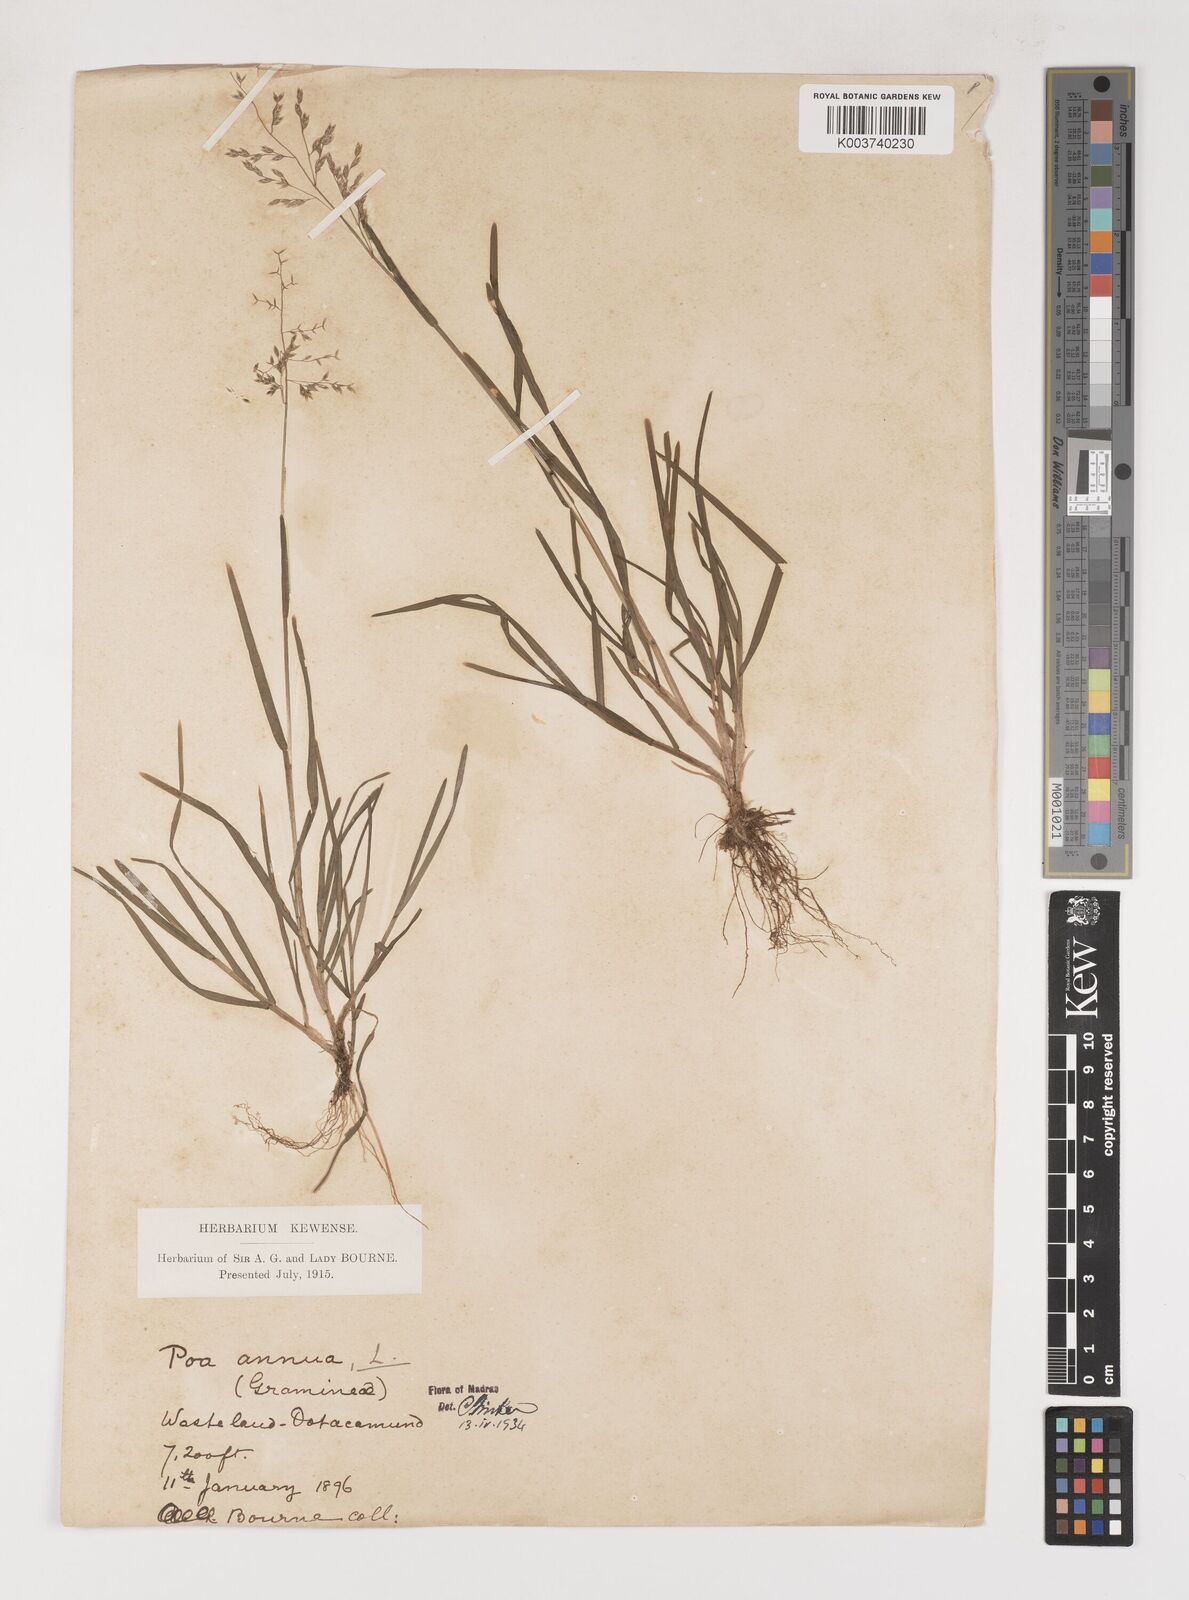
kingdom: Plantae
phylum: Tracheophyta
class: Liliopsida
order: Poales
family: Poaceae
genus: Poa
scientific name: Poa annua
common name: Annual bluegrass
